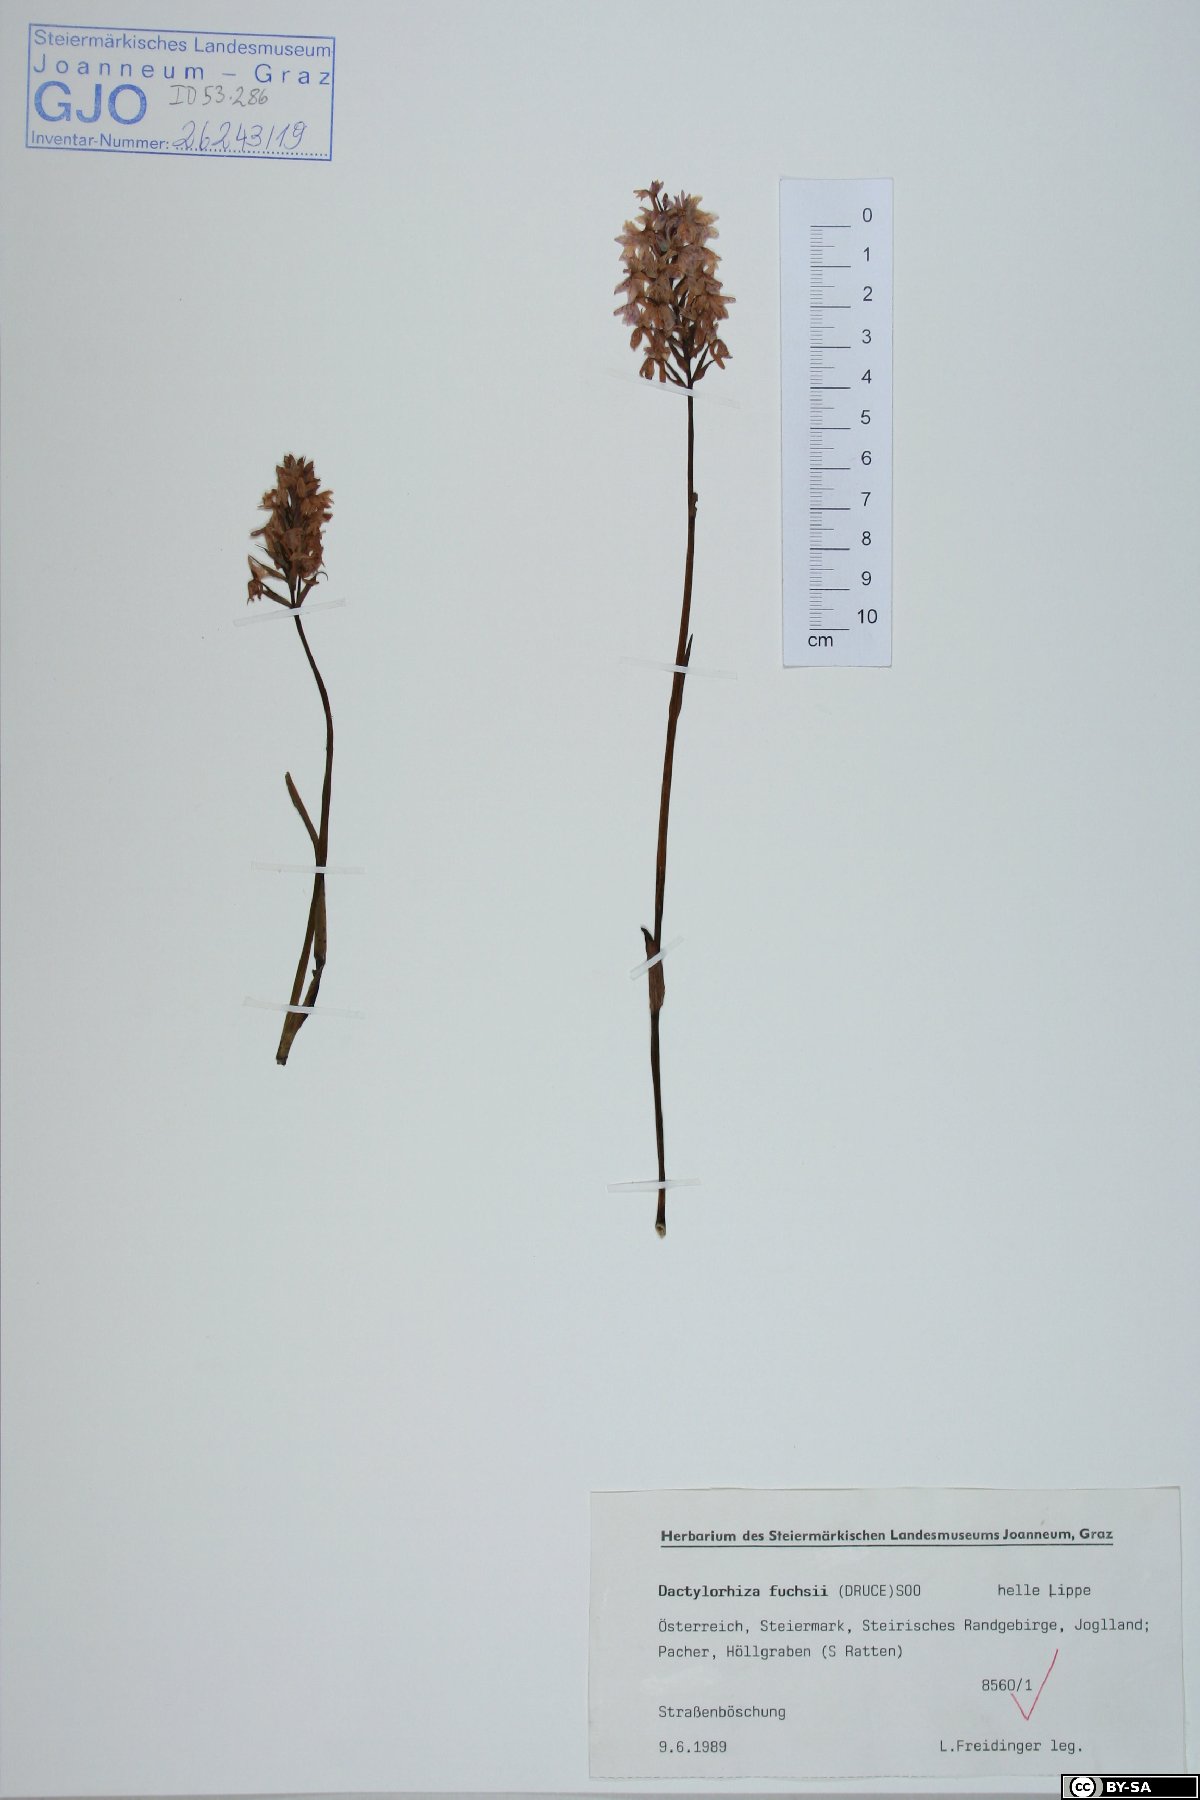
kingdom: Plantae
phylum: Tracheophyta
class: Liliopsida
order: Asparagales
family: Orchidaceae
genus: Dactylorhiza
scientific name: Dactylorhiza maculata
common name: Heath spotted-orchid
